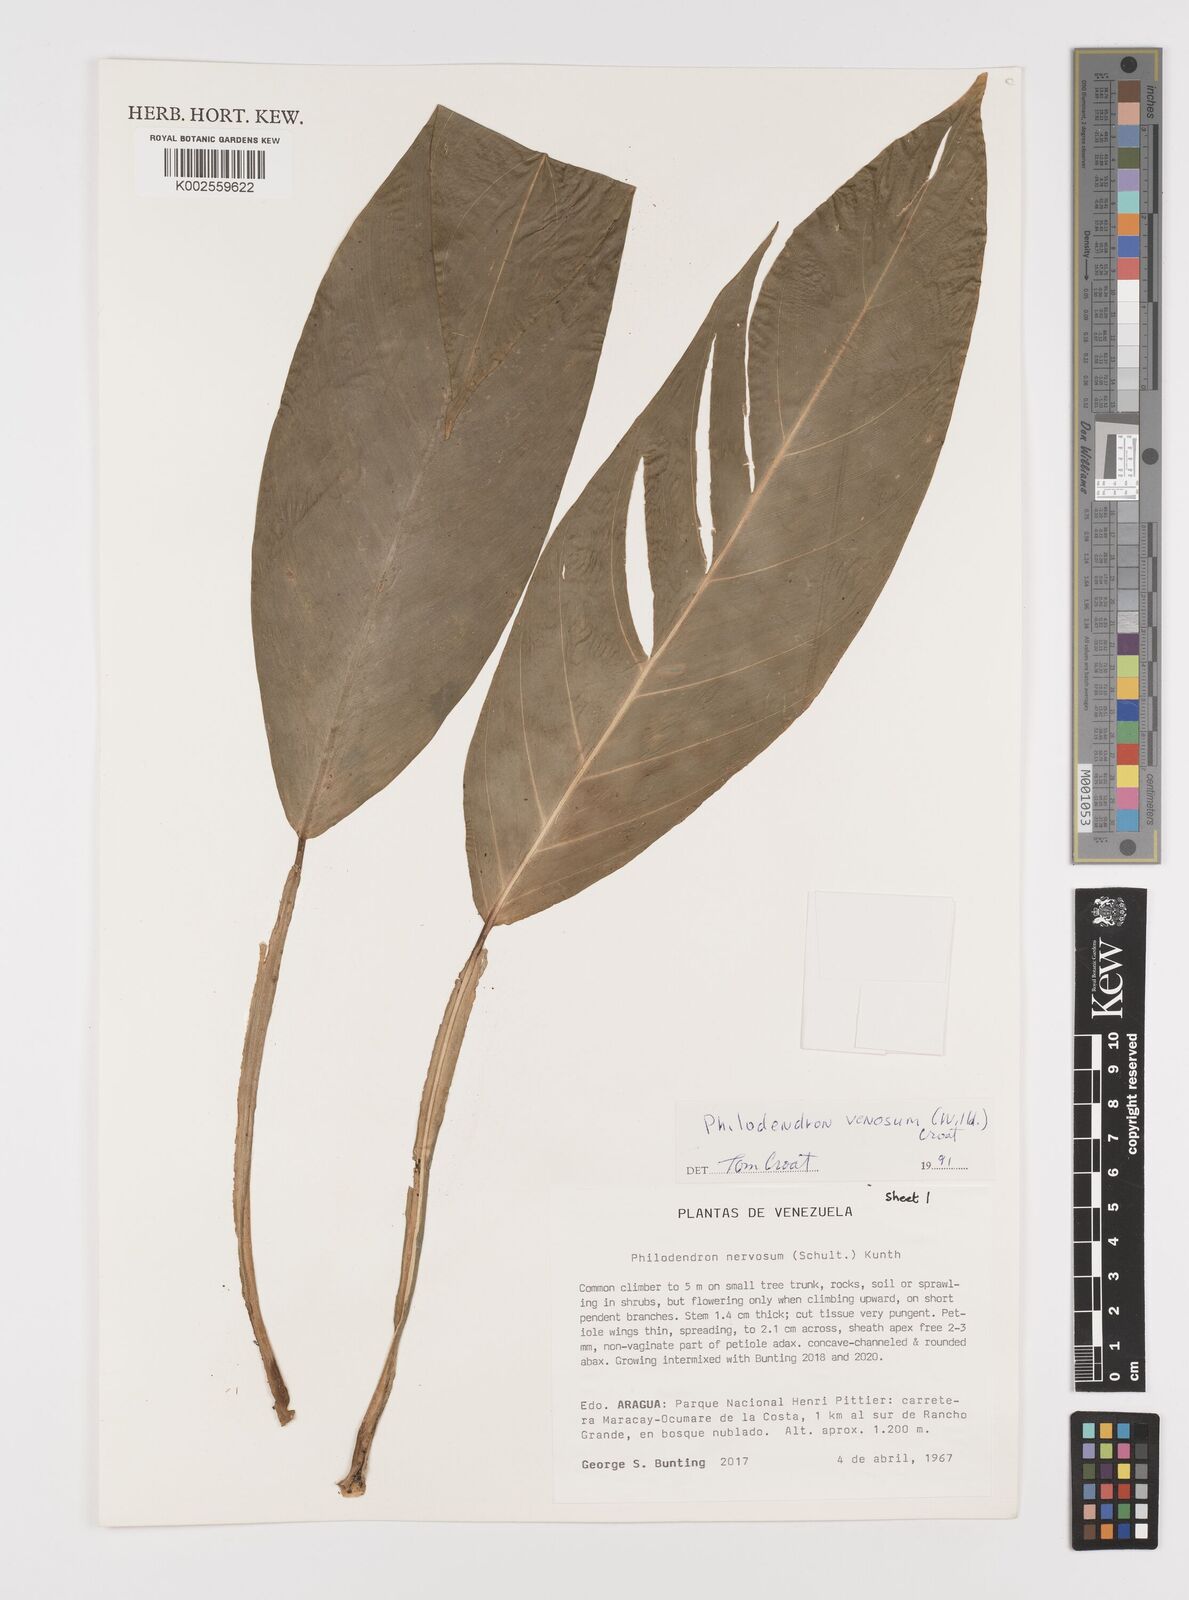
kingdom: Plantae
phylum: Tracheophyta
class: Liliopsida
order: Alismatales
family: Araceae
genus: Philodendron
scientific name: Philodendron venosum
